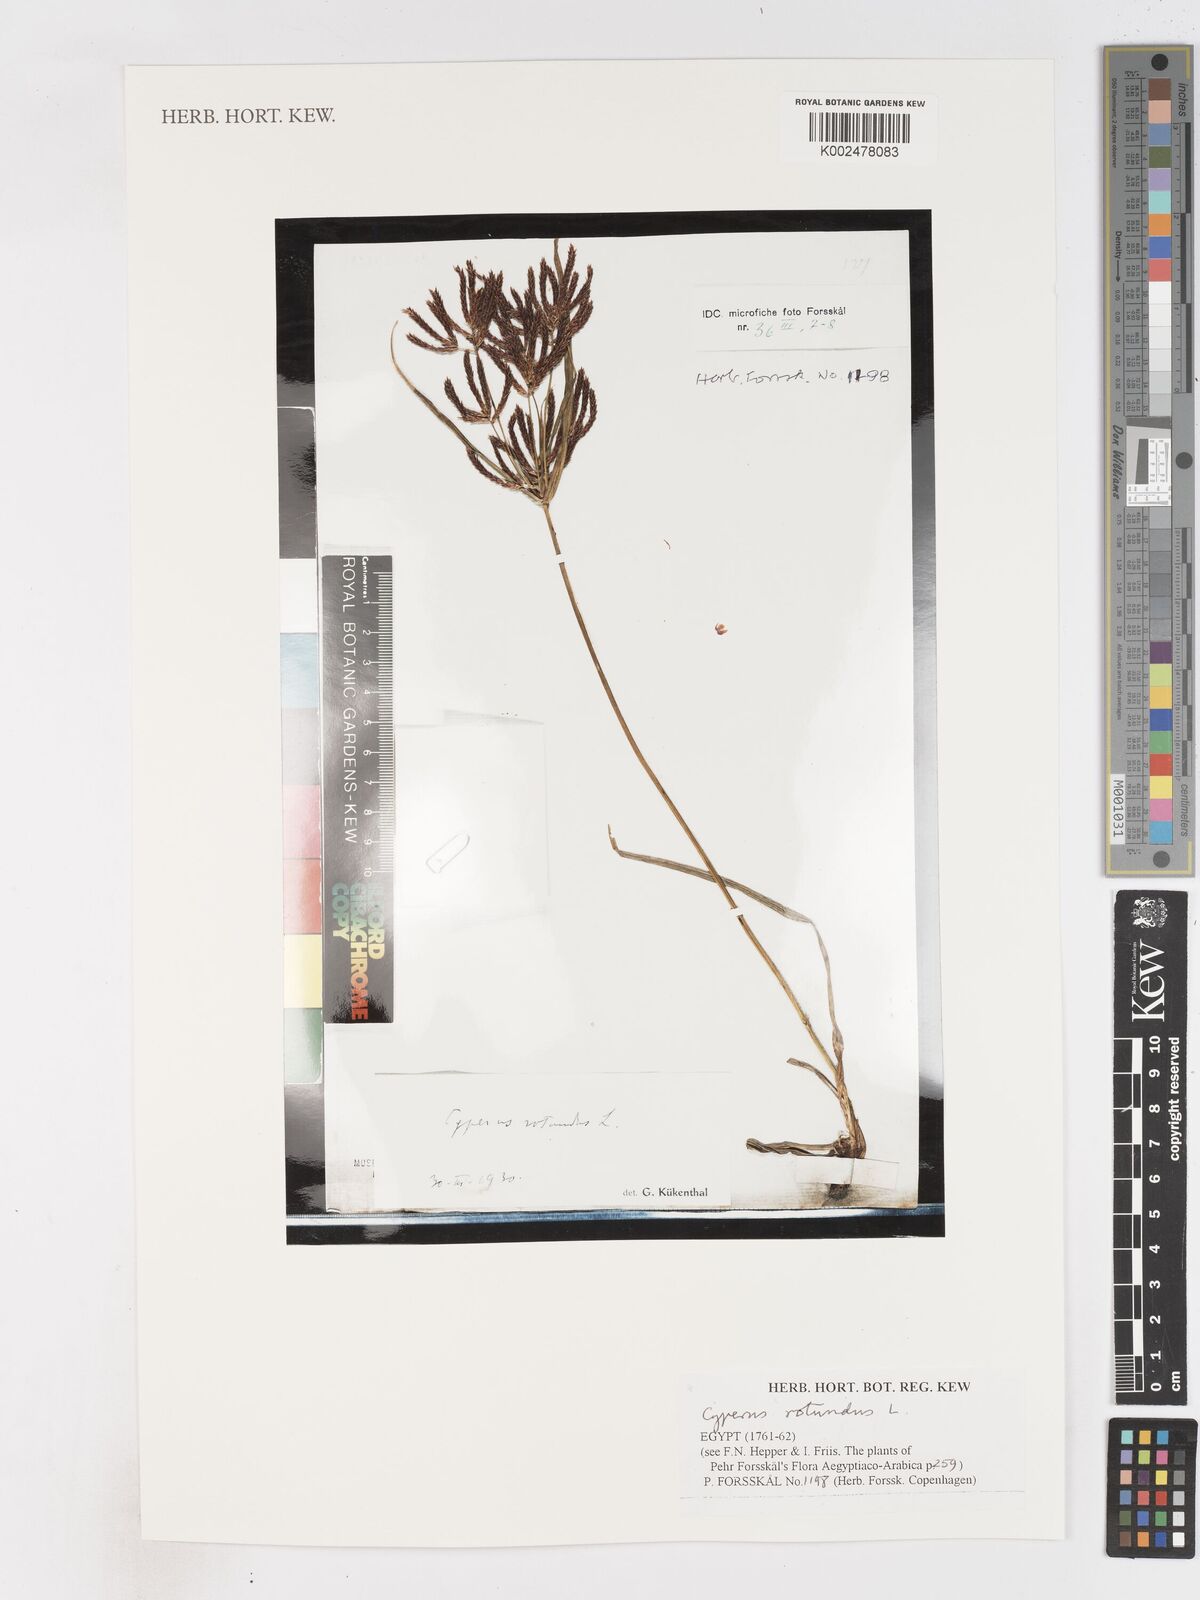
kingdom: Plantae
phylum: Tracheophyta
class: Liliopsida
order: Poales
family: Cyperaceae
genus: Cyperus
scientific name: Cyperus rotundus
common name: Nutgrass
